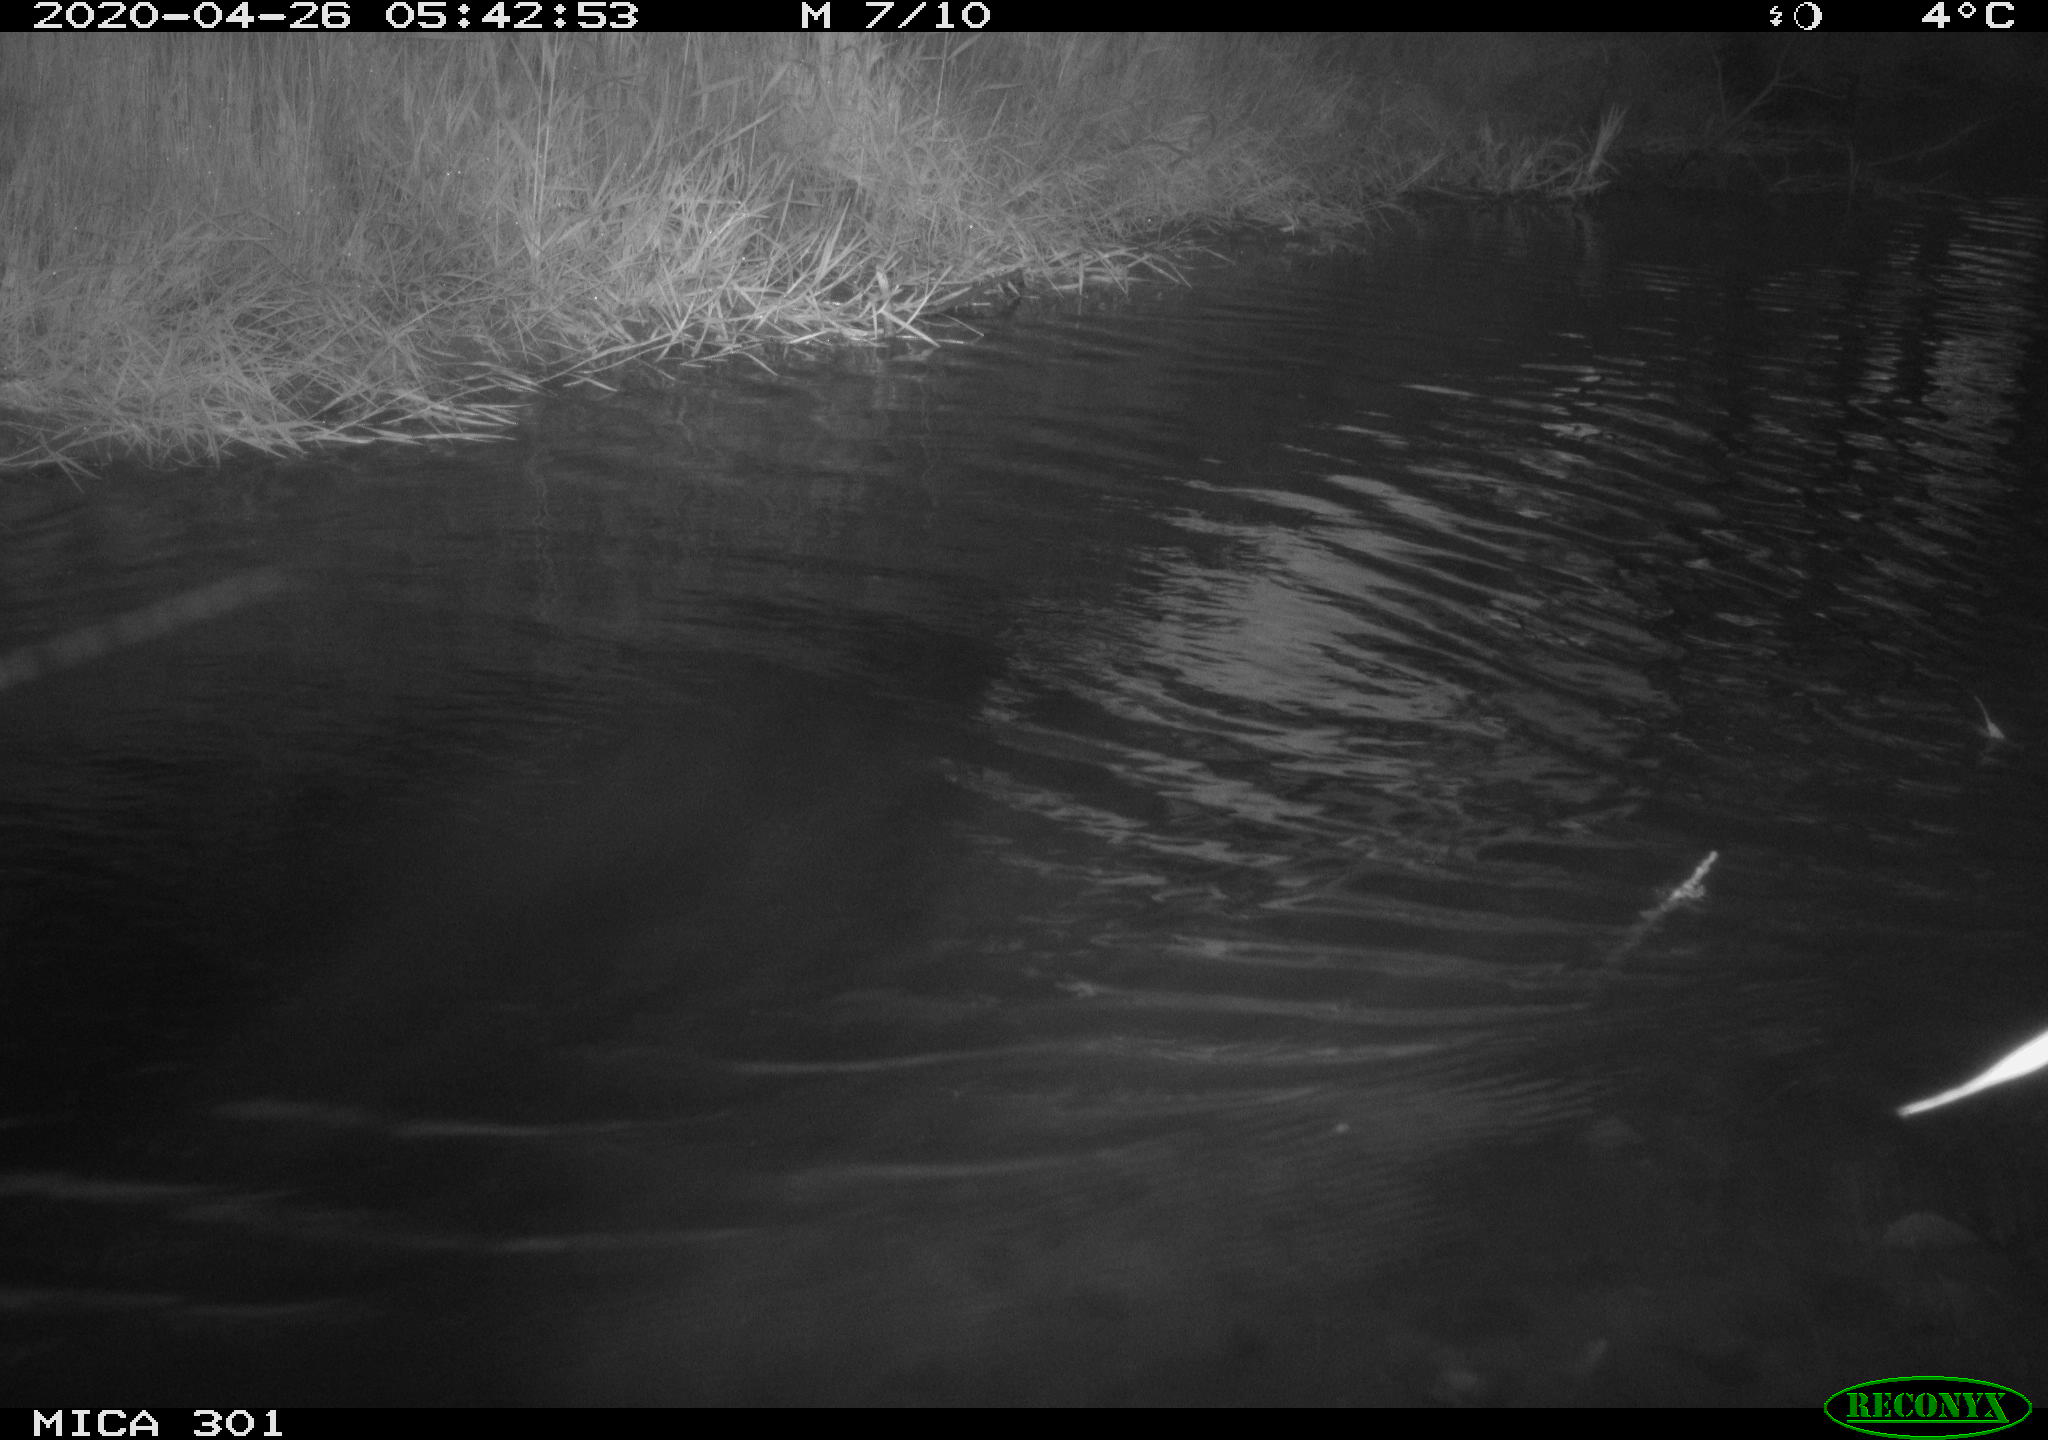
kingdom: Animalia
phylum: Chordata
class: Aves
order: Anseriformes
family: Anatidae
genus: Mareca
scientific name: Mareca strepera
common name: Gadwall
